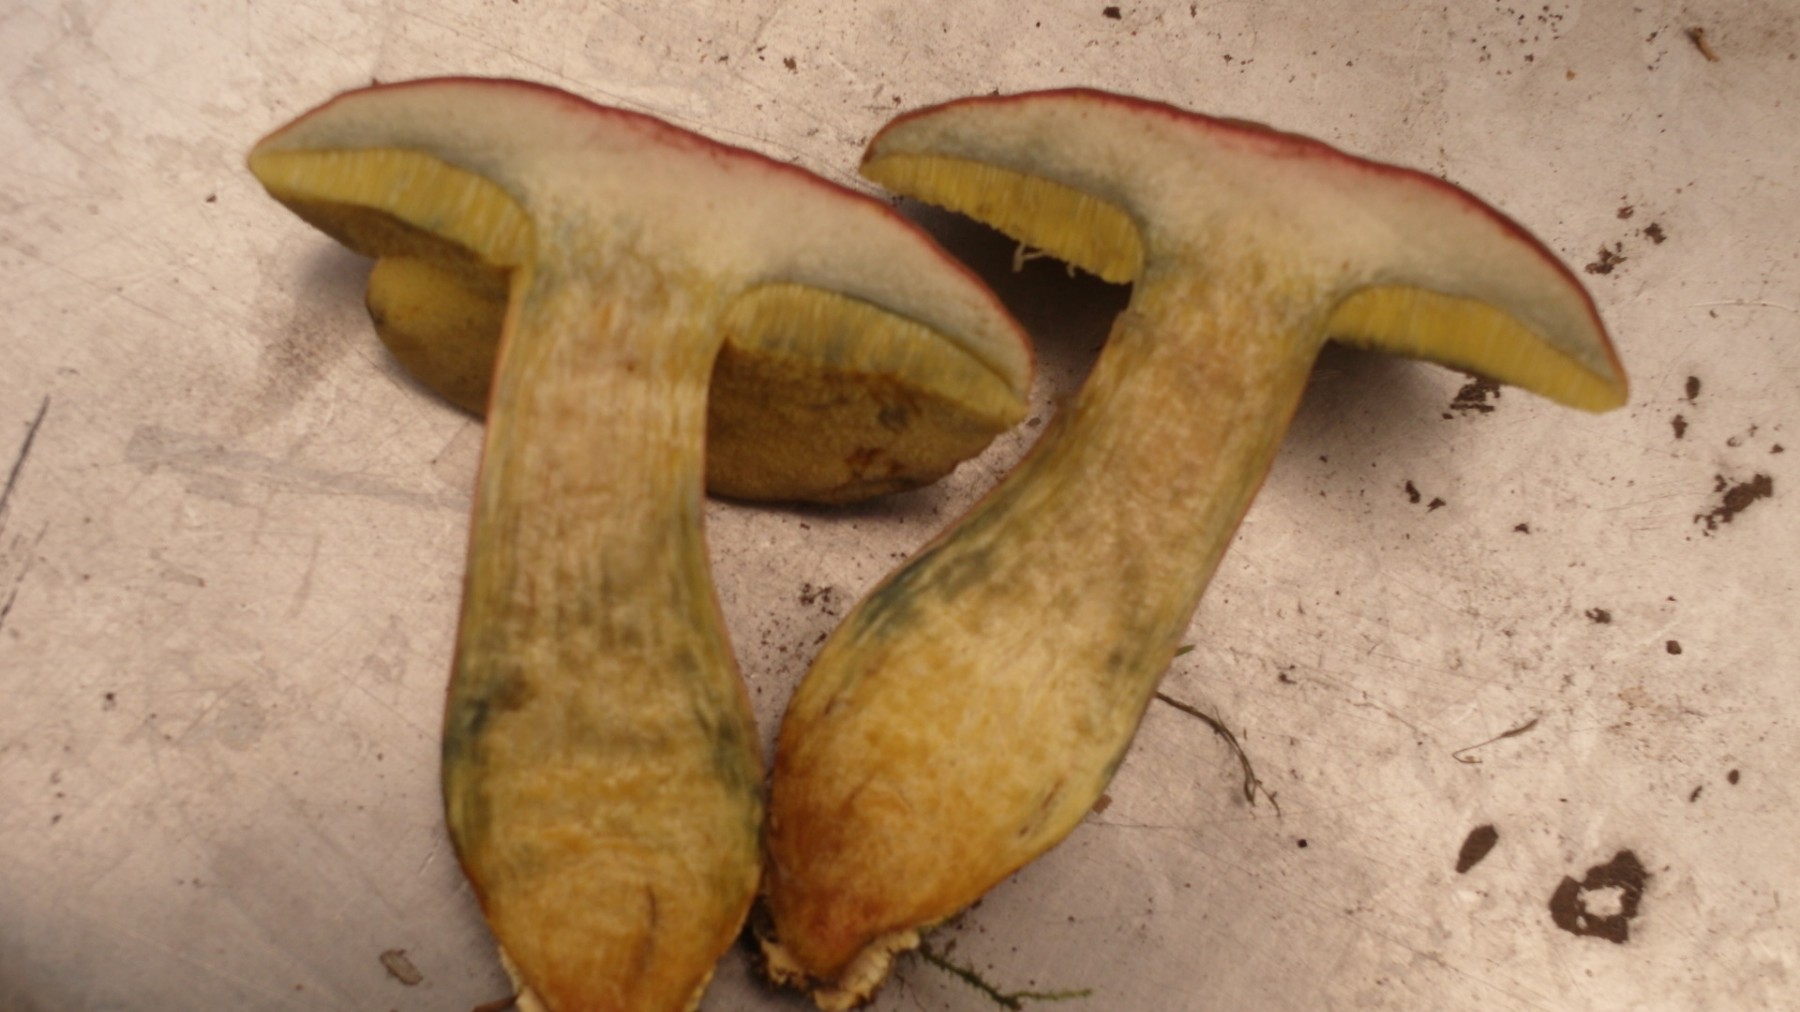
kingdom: Fungi
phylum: Basidiomycota
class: Agaricomycetes
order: Boletales
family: Boletaceae
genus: Hortiboletus
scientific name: Hortiboletus bubalinus
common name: aurora-rørhat
